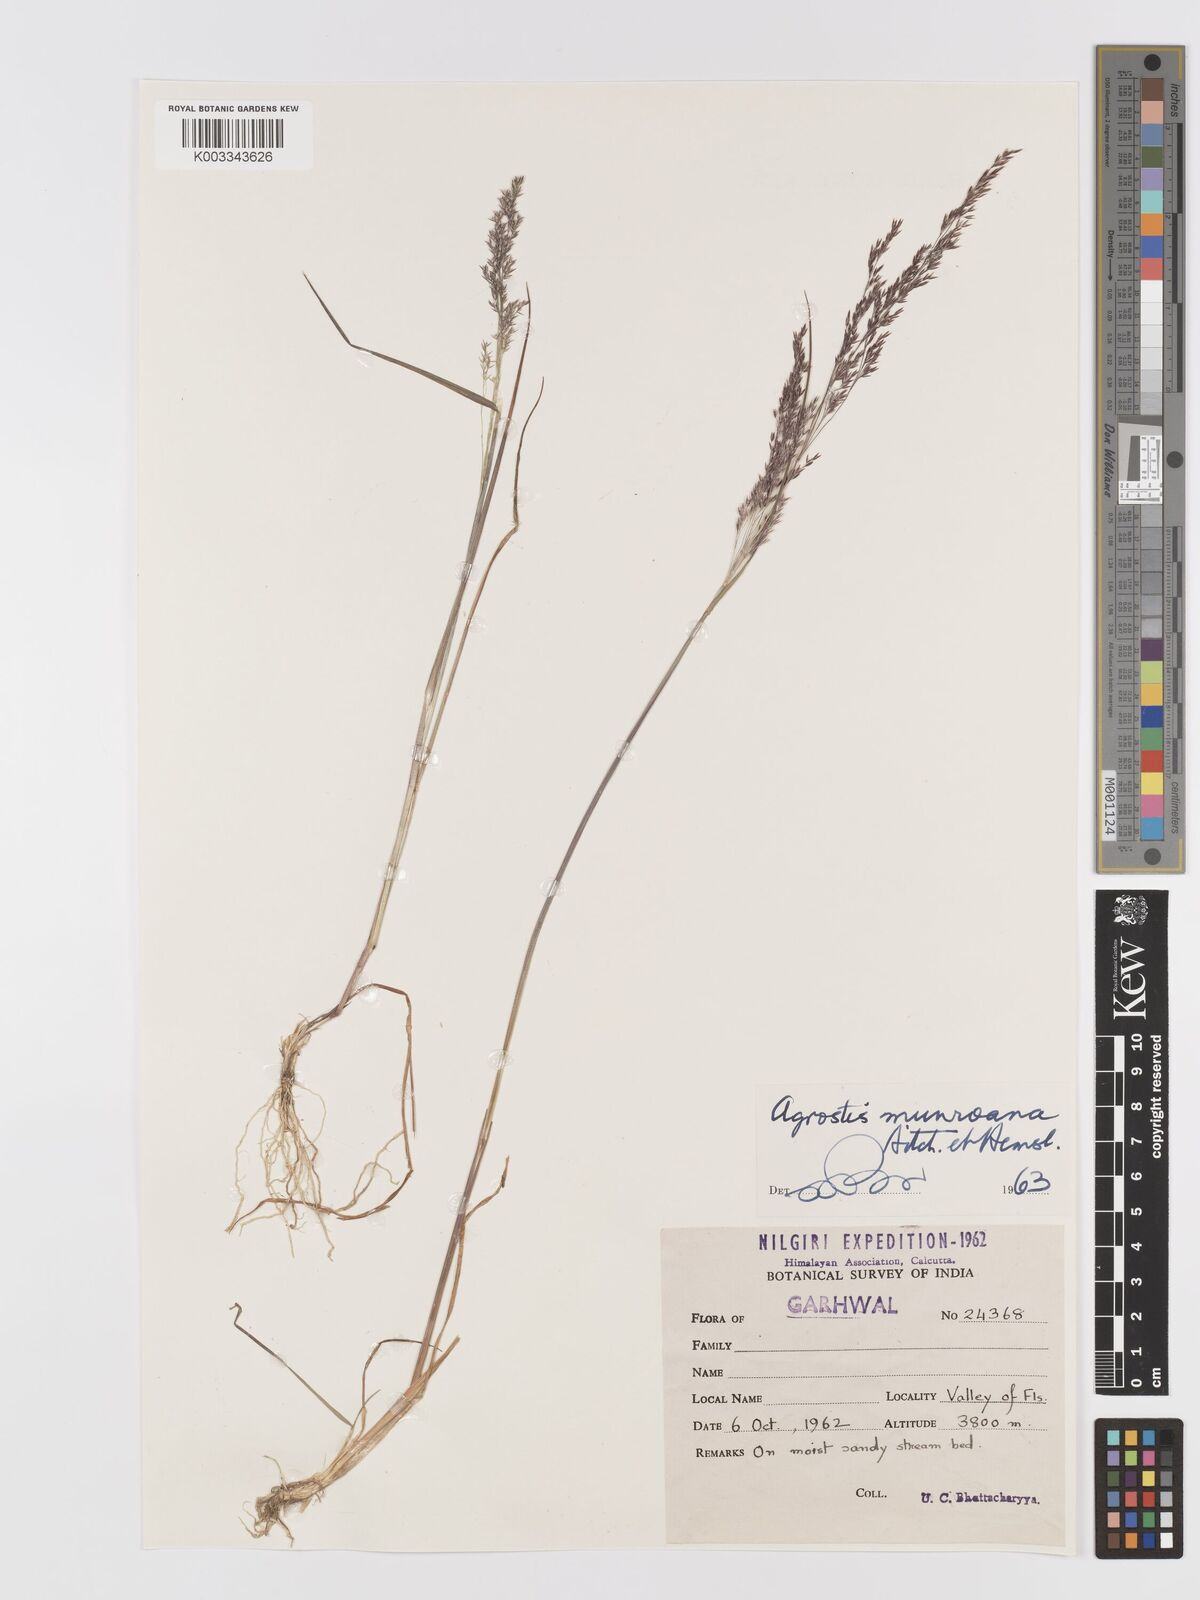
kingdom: Plantae
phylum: Tracheophyta
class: Liliopsida
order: Poales
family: Poaceae
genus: Agrostis
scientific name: Agrostis munroana
